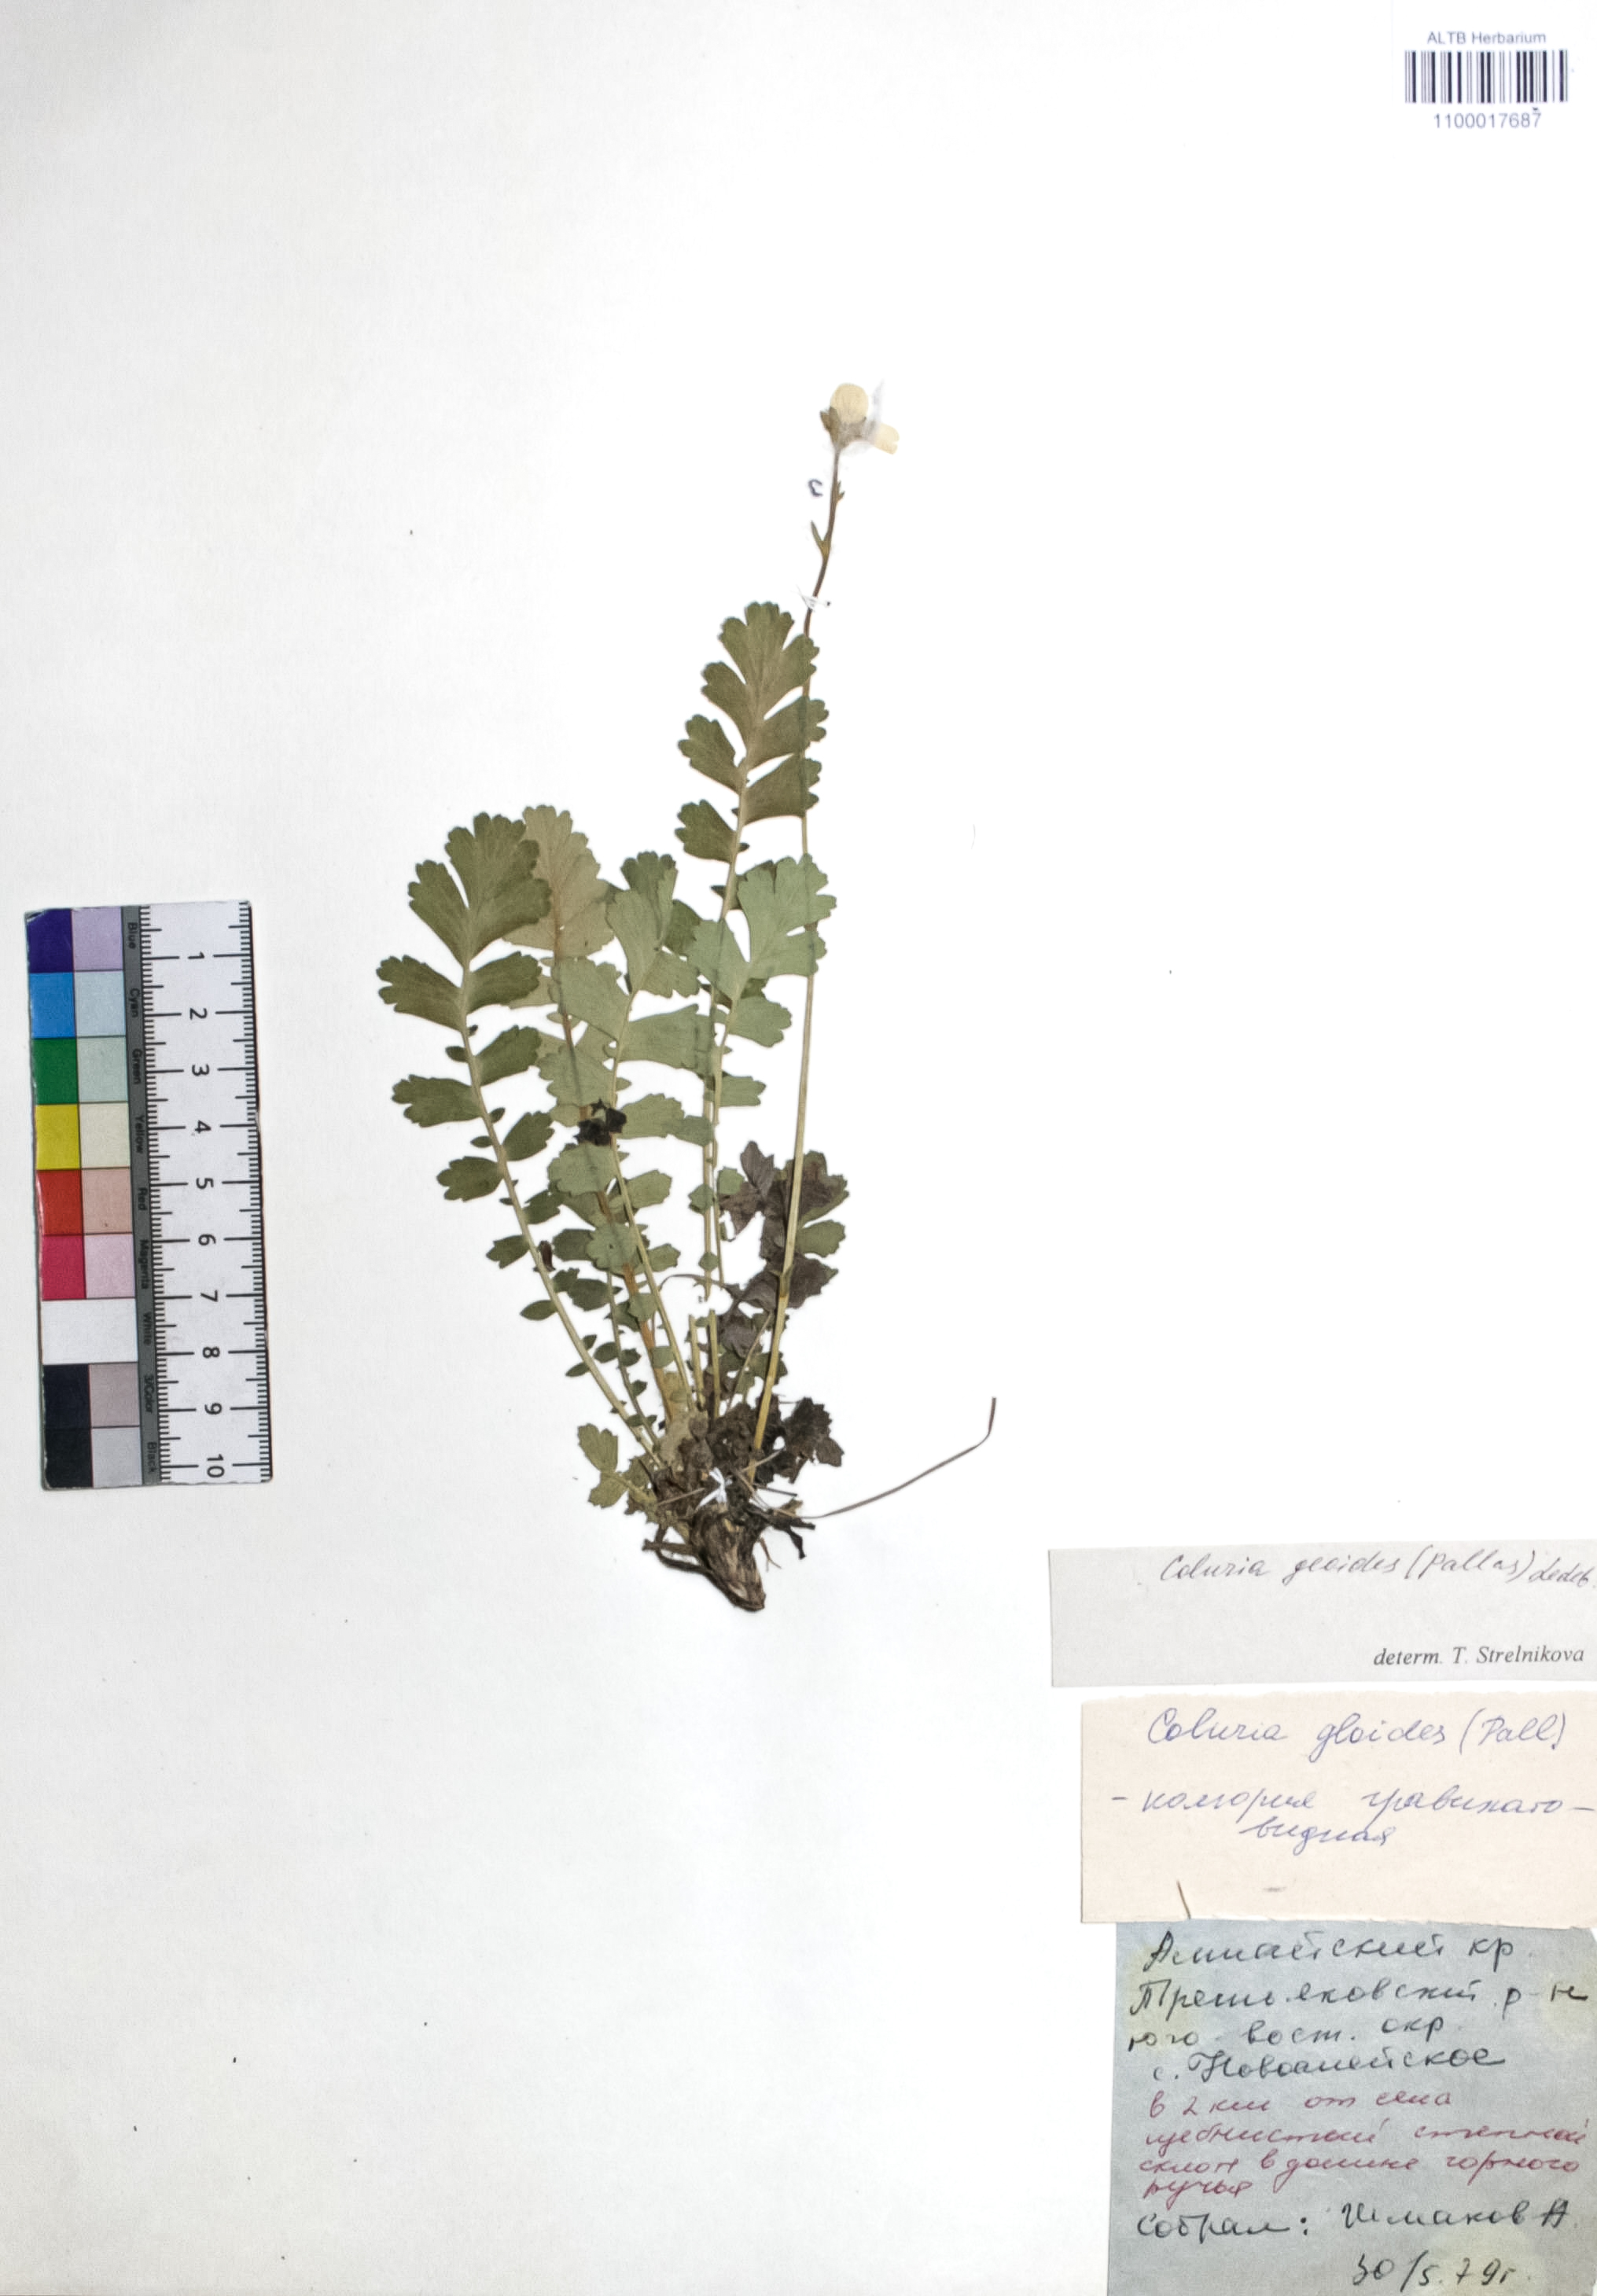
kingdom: Plantae
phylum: Tracheophyta
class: Magnoliopsida
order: Rosales
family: Rosaceae
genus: Geum
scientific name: Geum geoides
